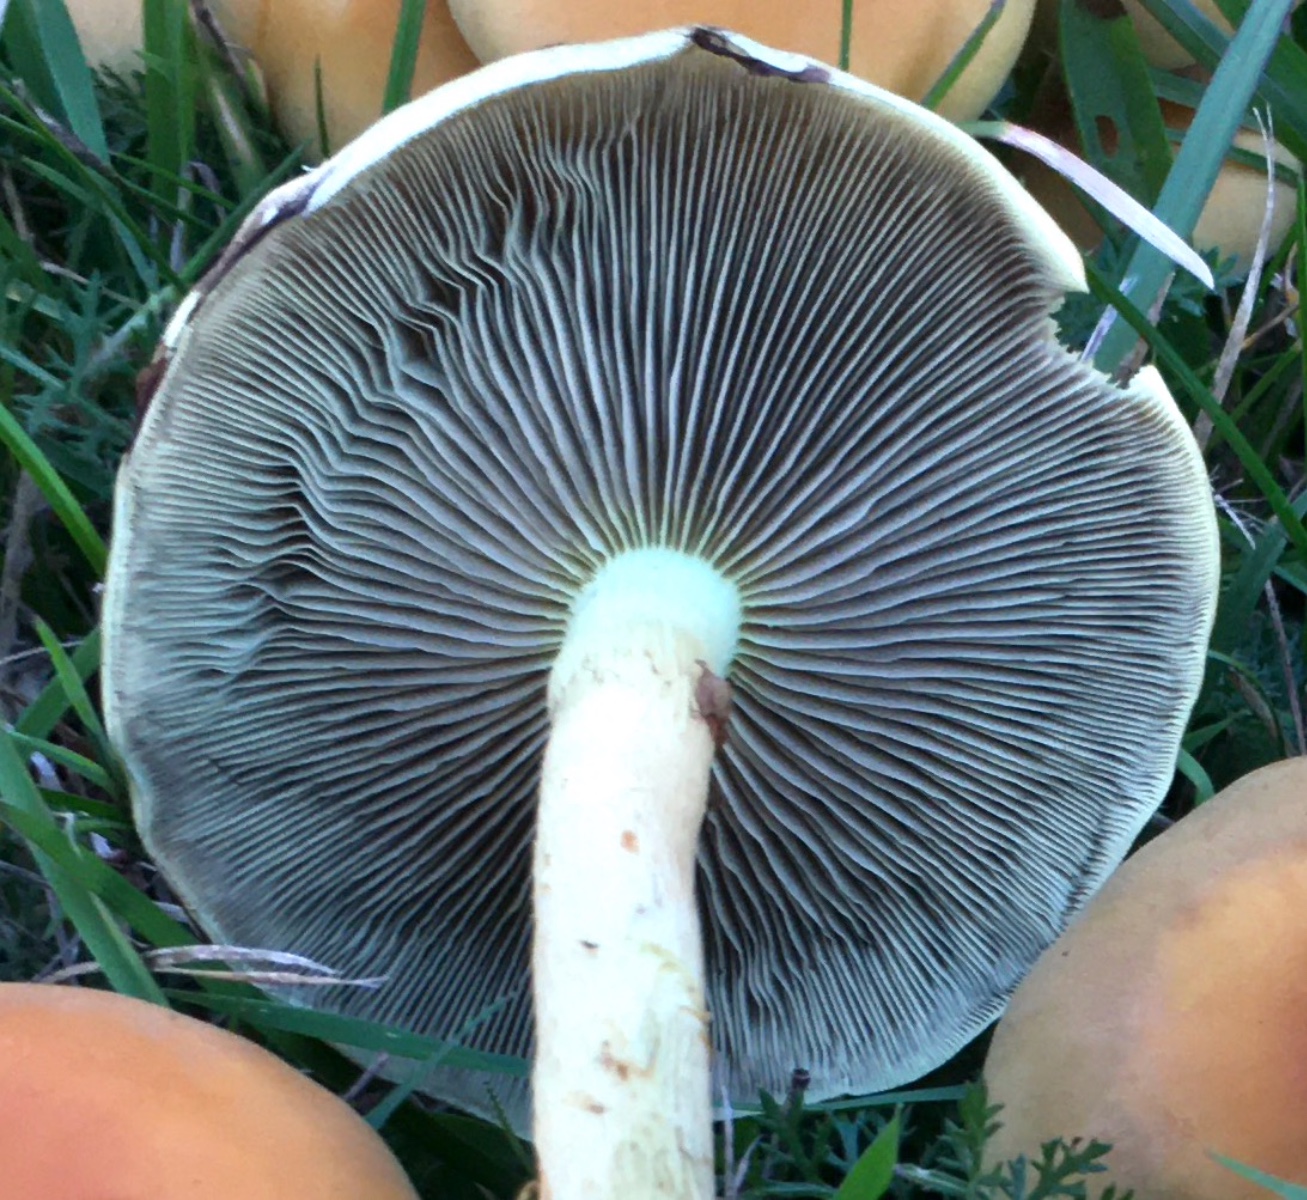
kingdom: Fungi
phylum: Basidiomycota
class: Agaricomycetes
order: Agaricales
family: Strophariaceae
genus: Hypholoma
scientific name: Hypholoma fasciculare
